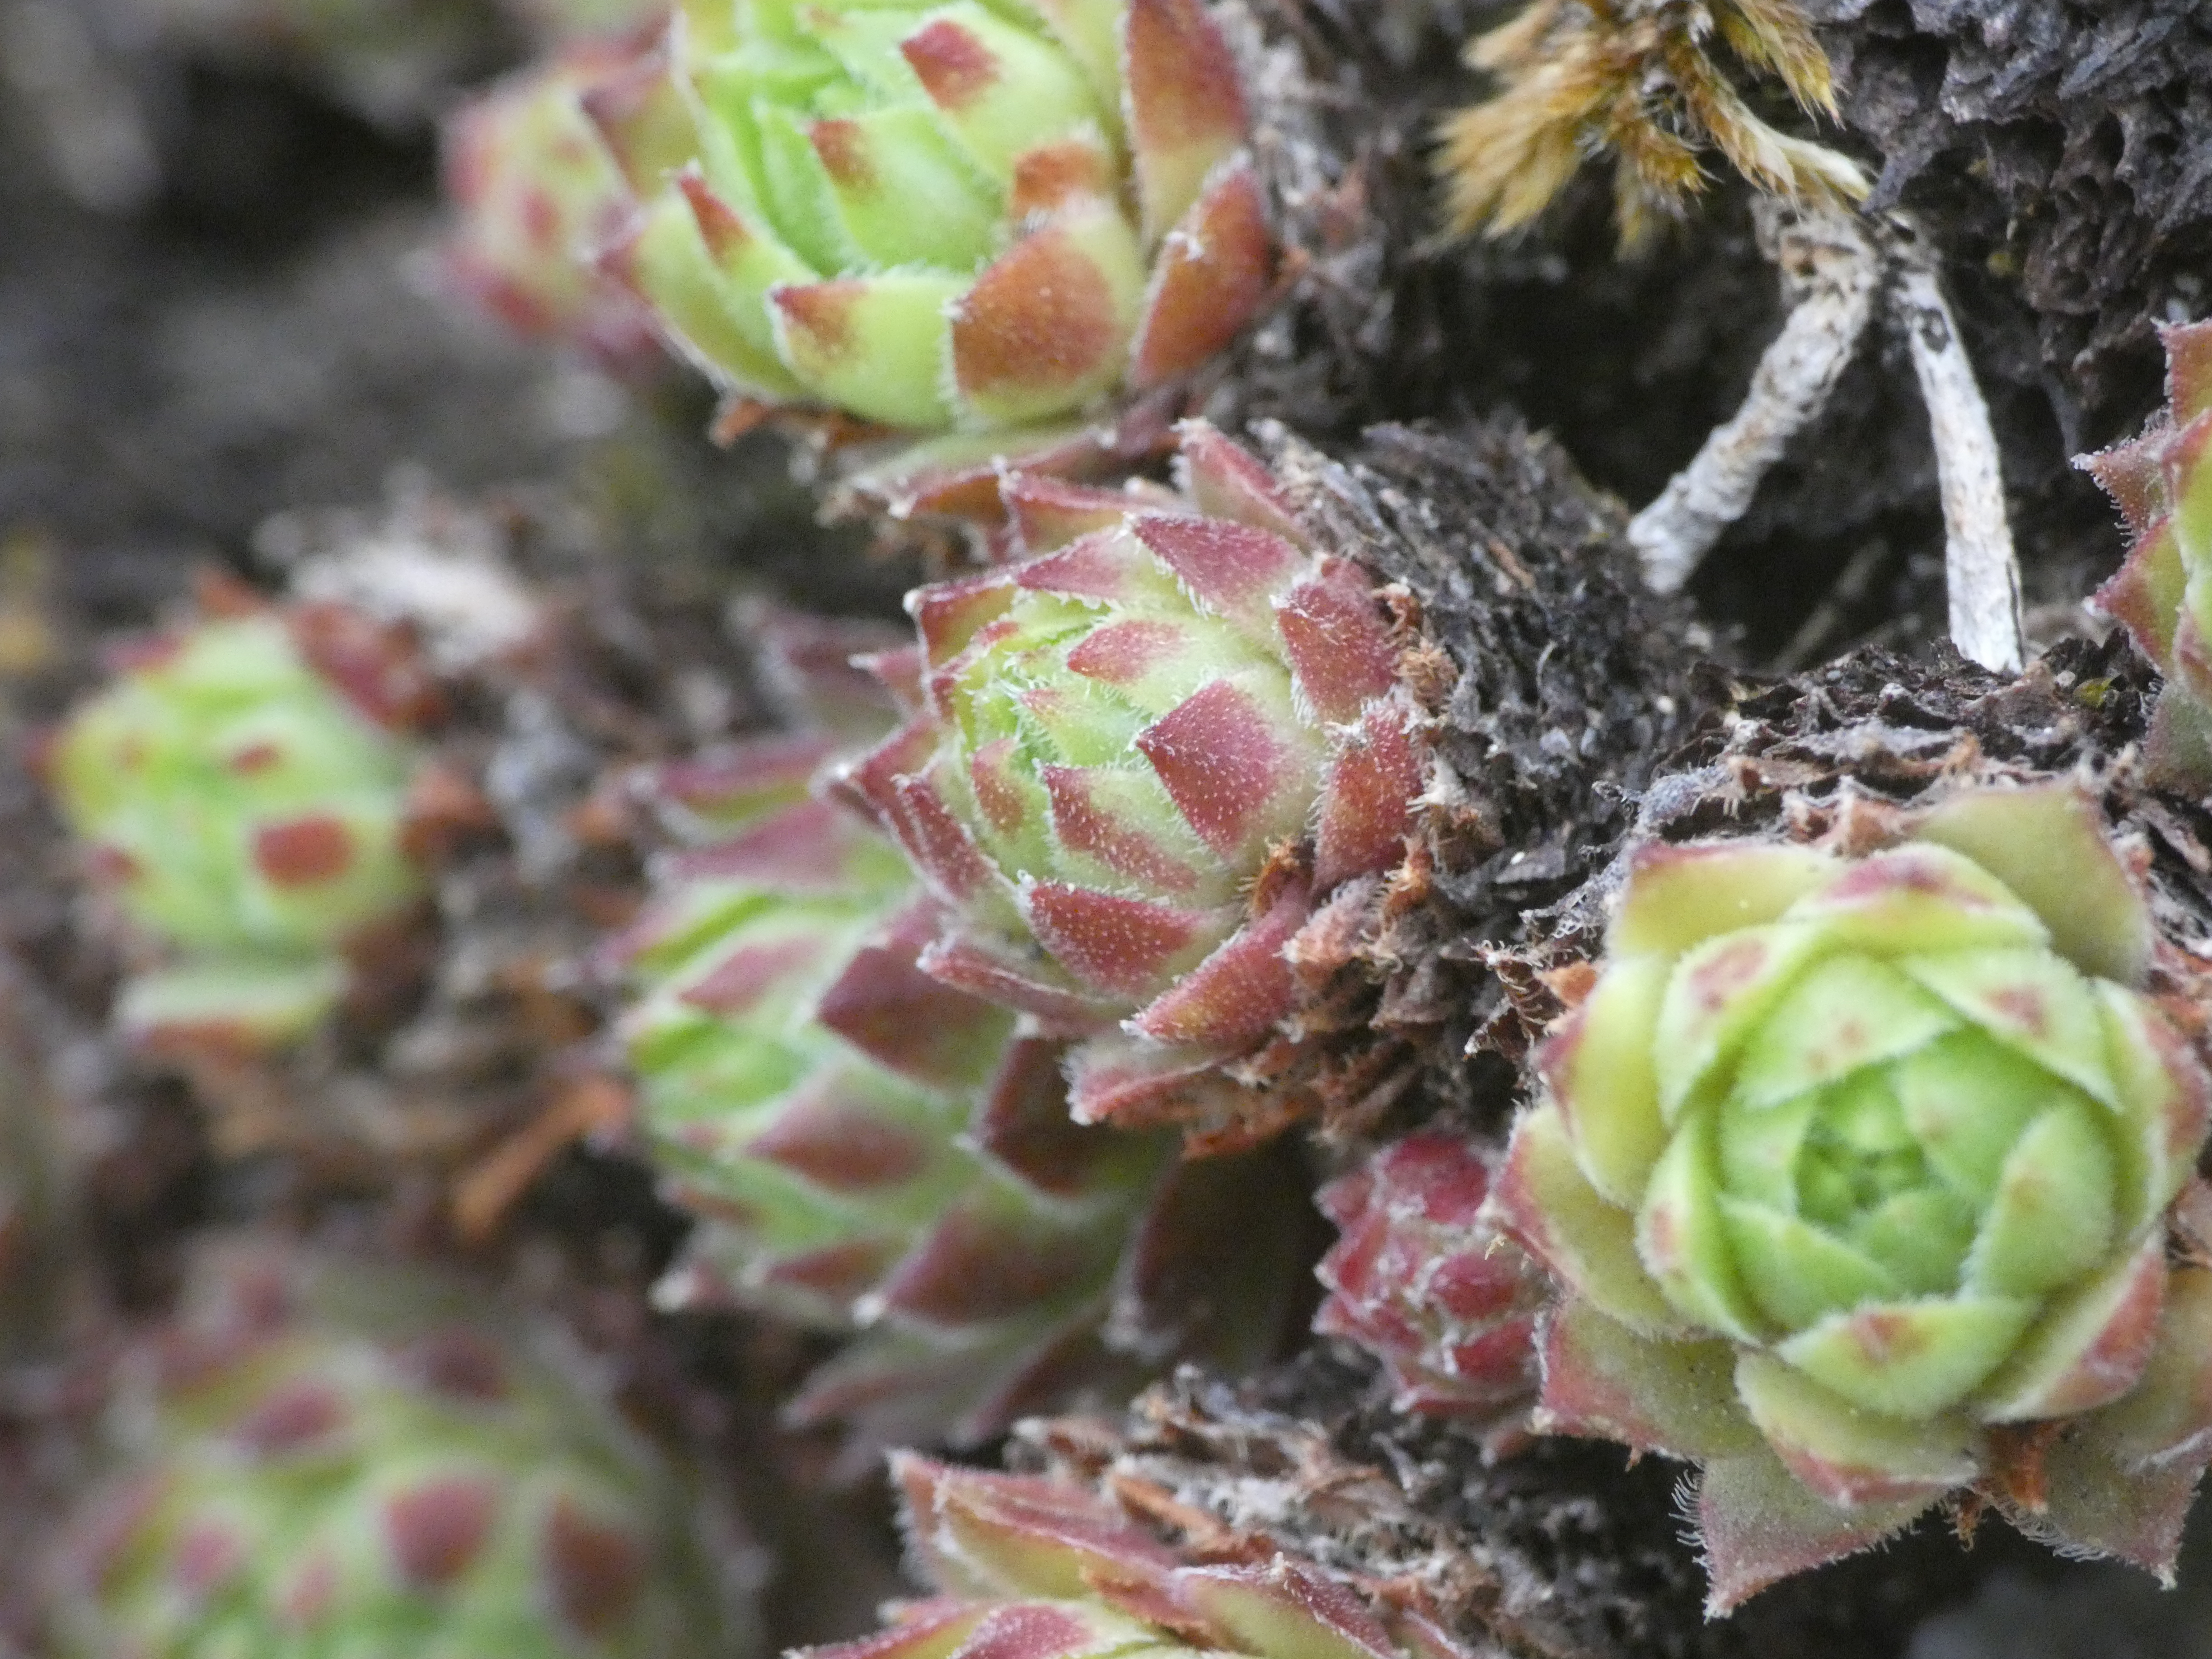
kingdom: Plantae
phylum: Tracheophyta
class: Magnoliopsida
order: Saxifragales
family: Crassulaceae
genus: Sempervivum
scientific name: Sempervivum tectorum
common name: Husløg
